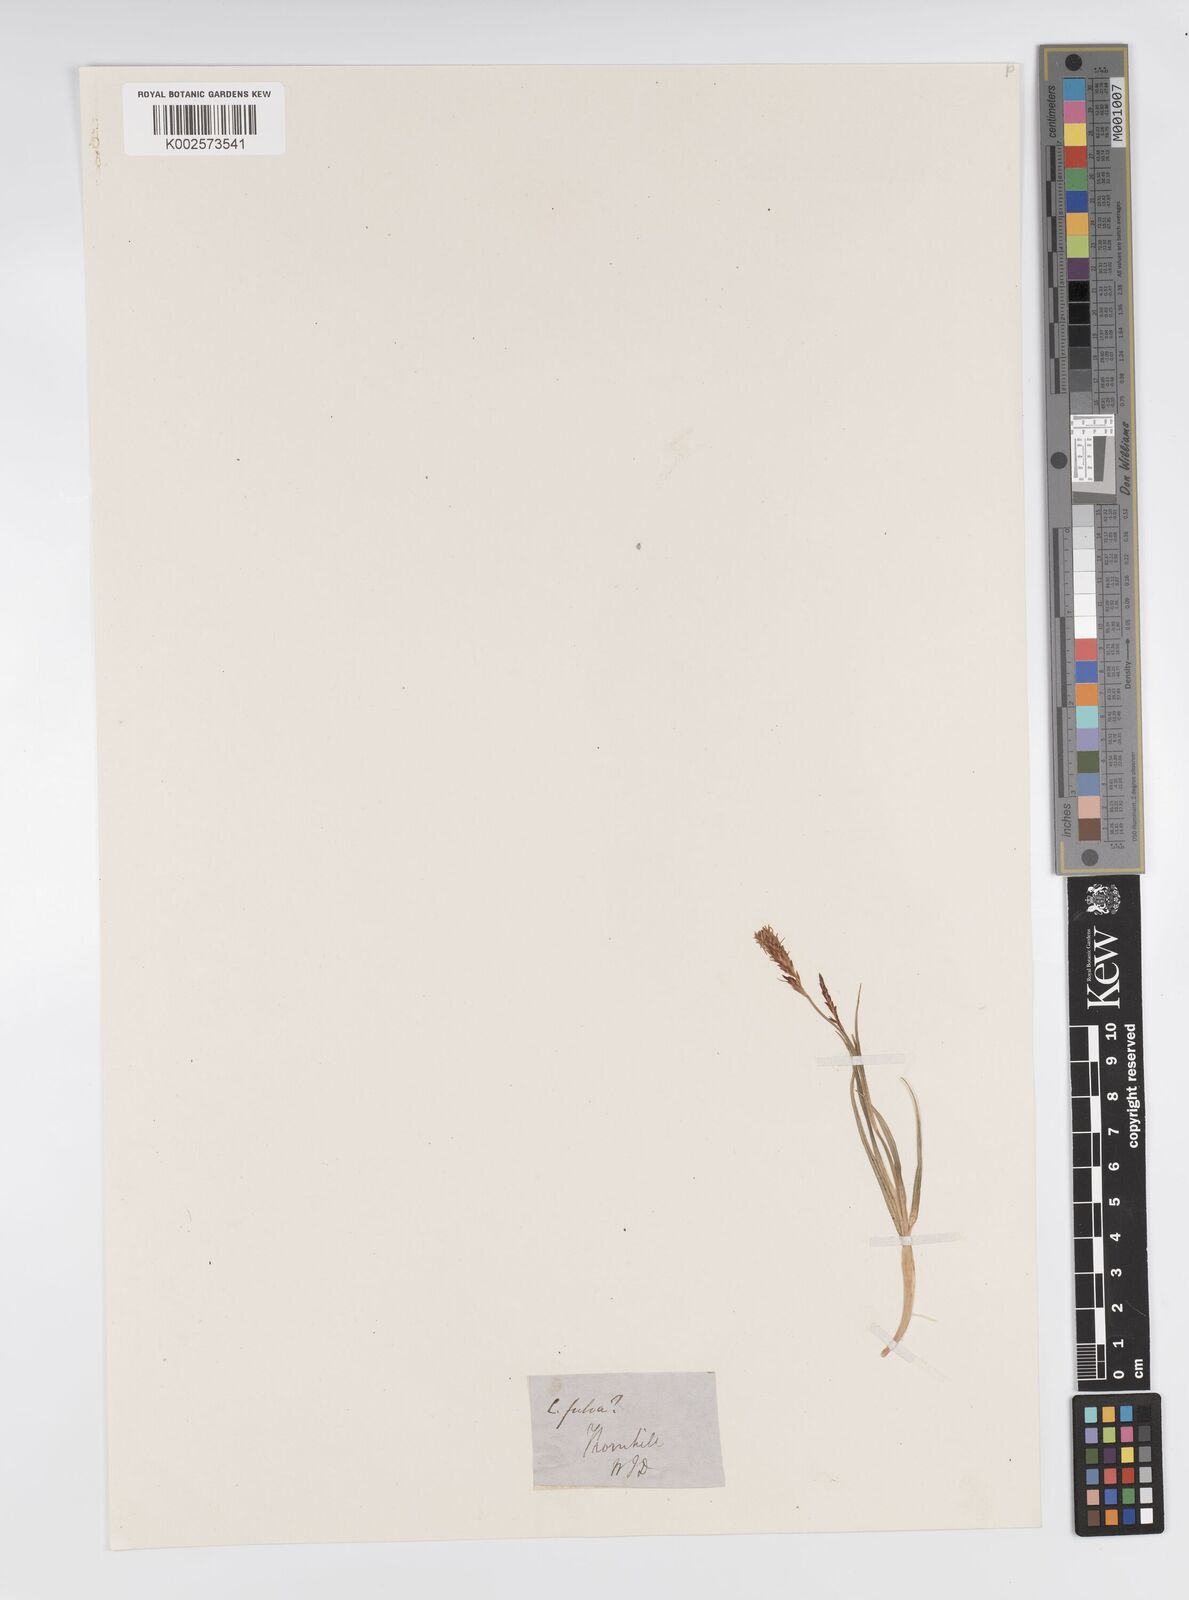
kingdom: Plantae
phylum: Tracheophyta
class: Liliopsida
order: Poales
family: Cyperaceae
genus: Carex
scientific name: Carex panicea
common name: Carnation sedge
